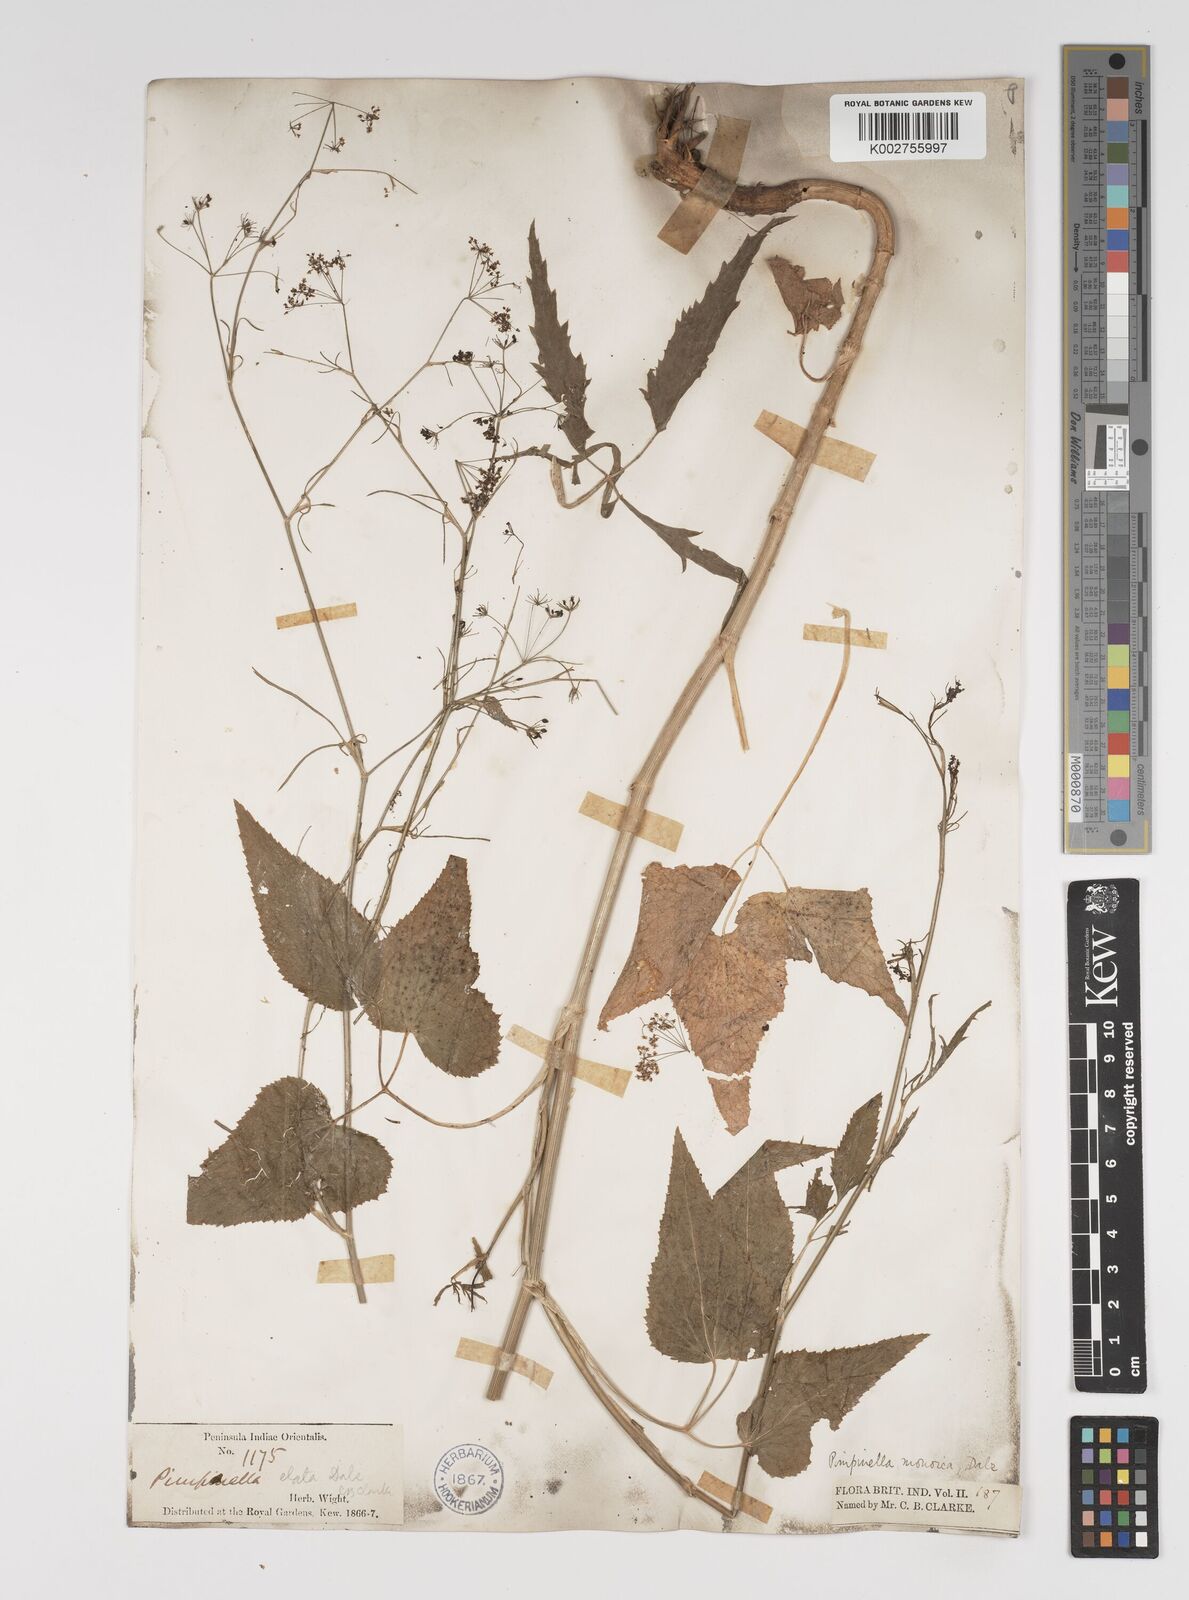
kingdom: Plantae
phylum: Tracheophyta
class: Magnoliopsida
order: Apiales
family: Apiaceae
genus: Pimpinella
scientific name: Pimpinella wallichiana
